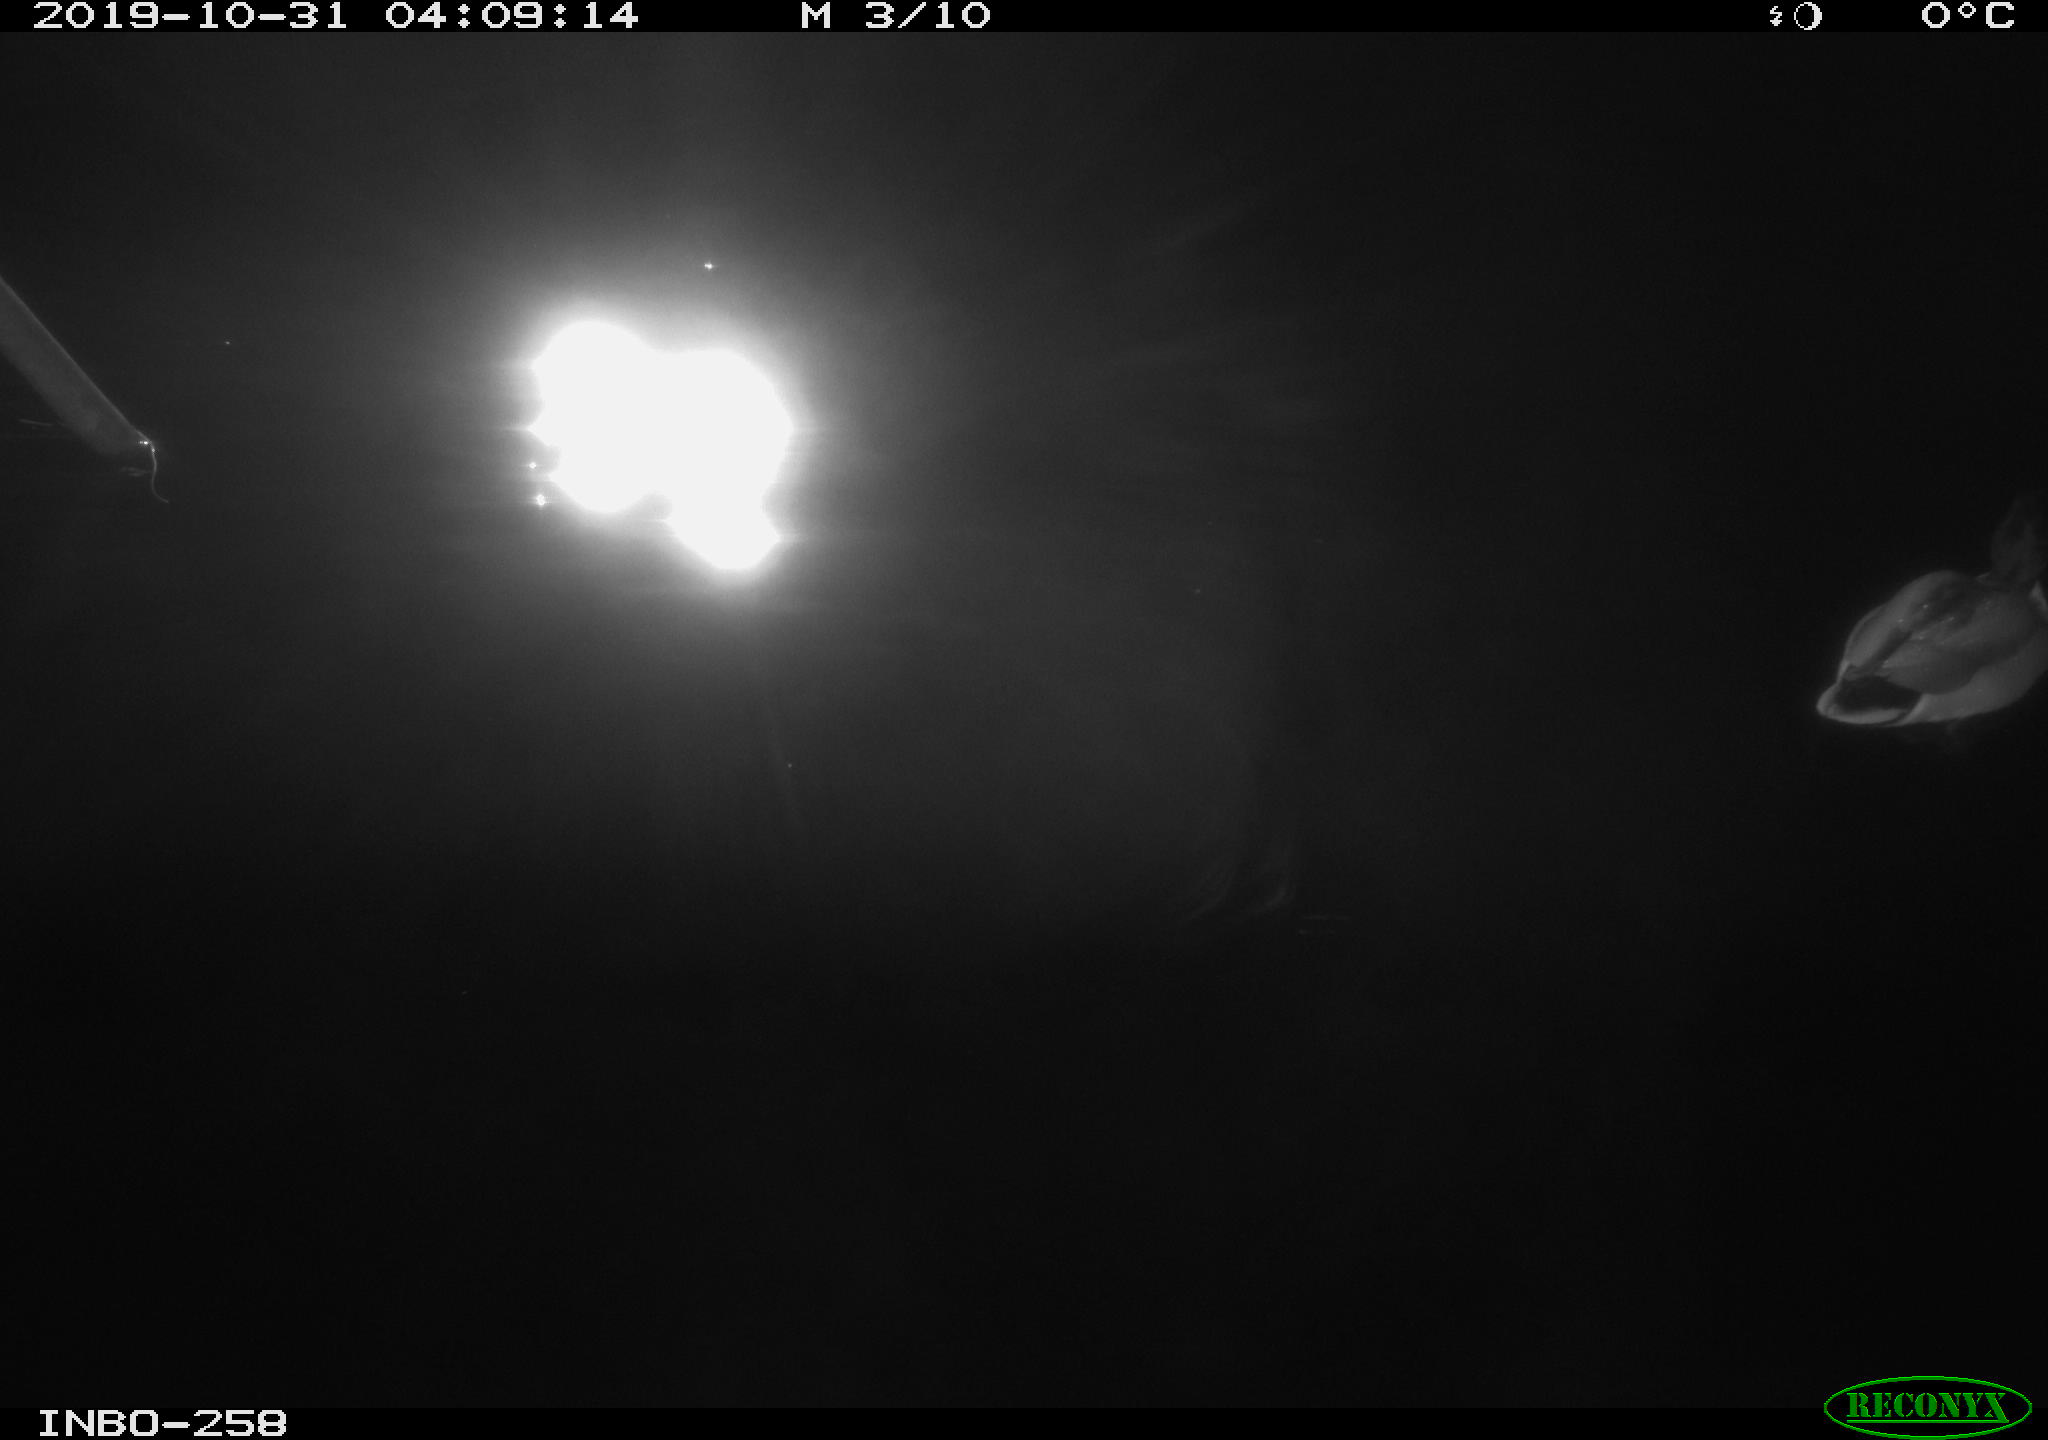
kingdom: Animalia
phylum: Chordata
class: Aves
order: Anseriformes
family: Anatidae
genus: Anas
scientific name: Anas platyrhynchos
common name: Mallard
